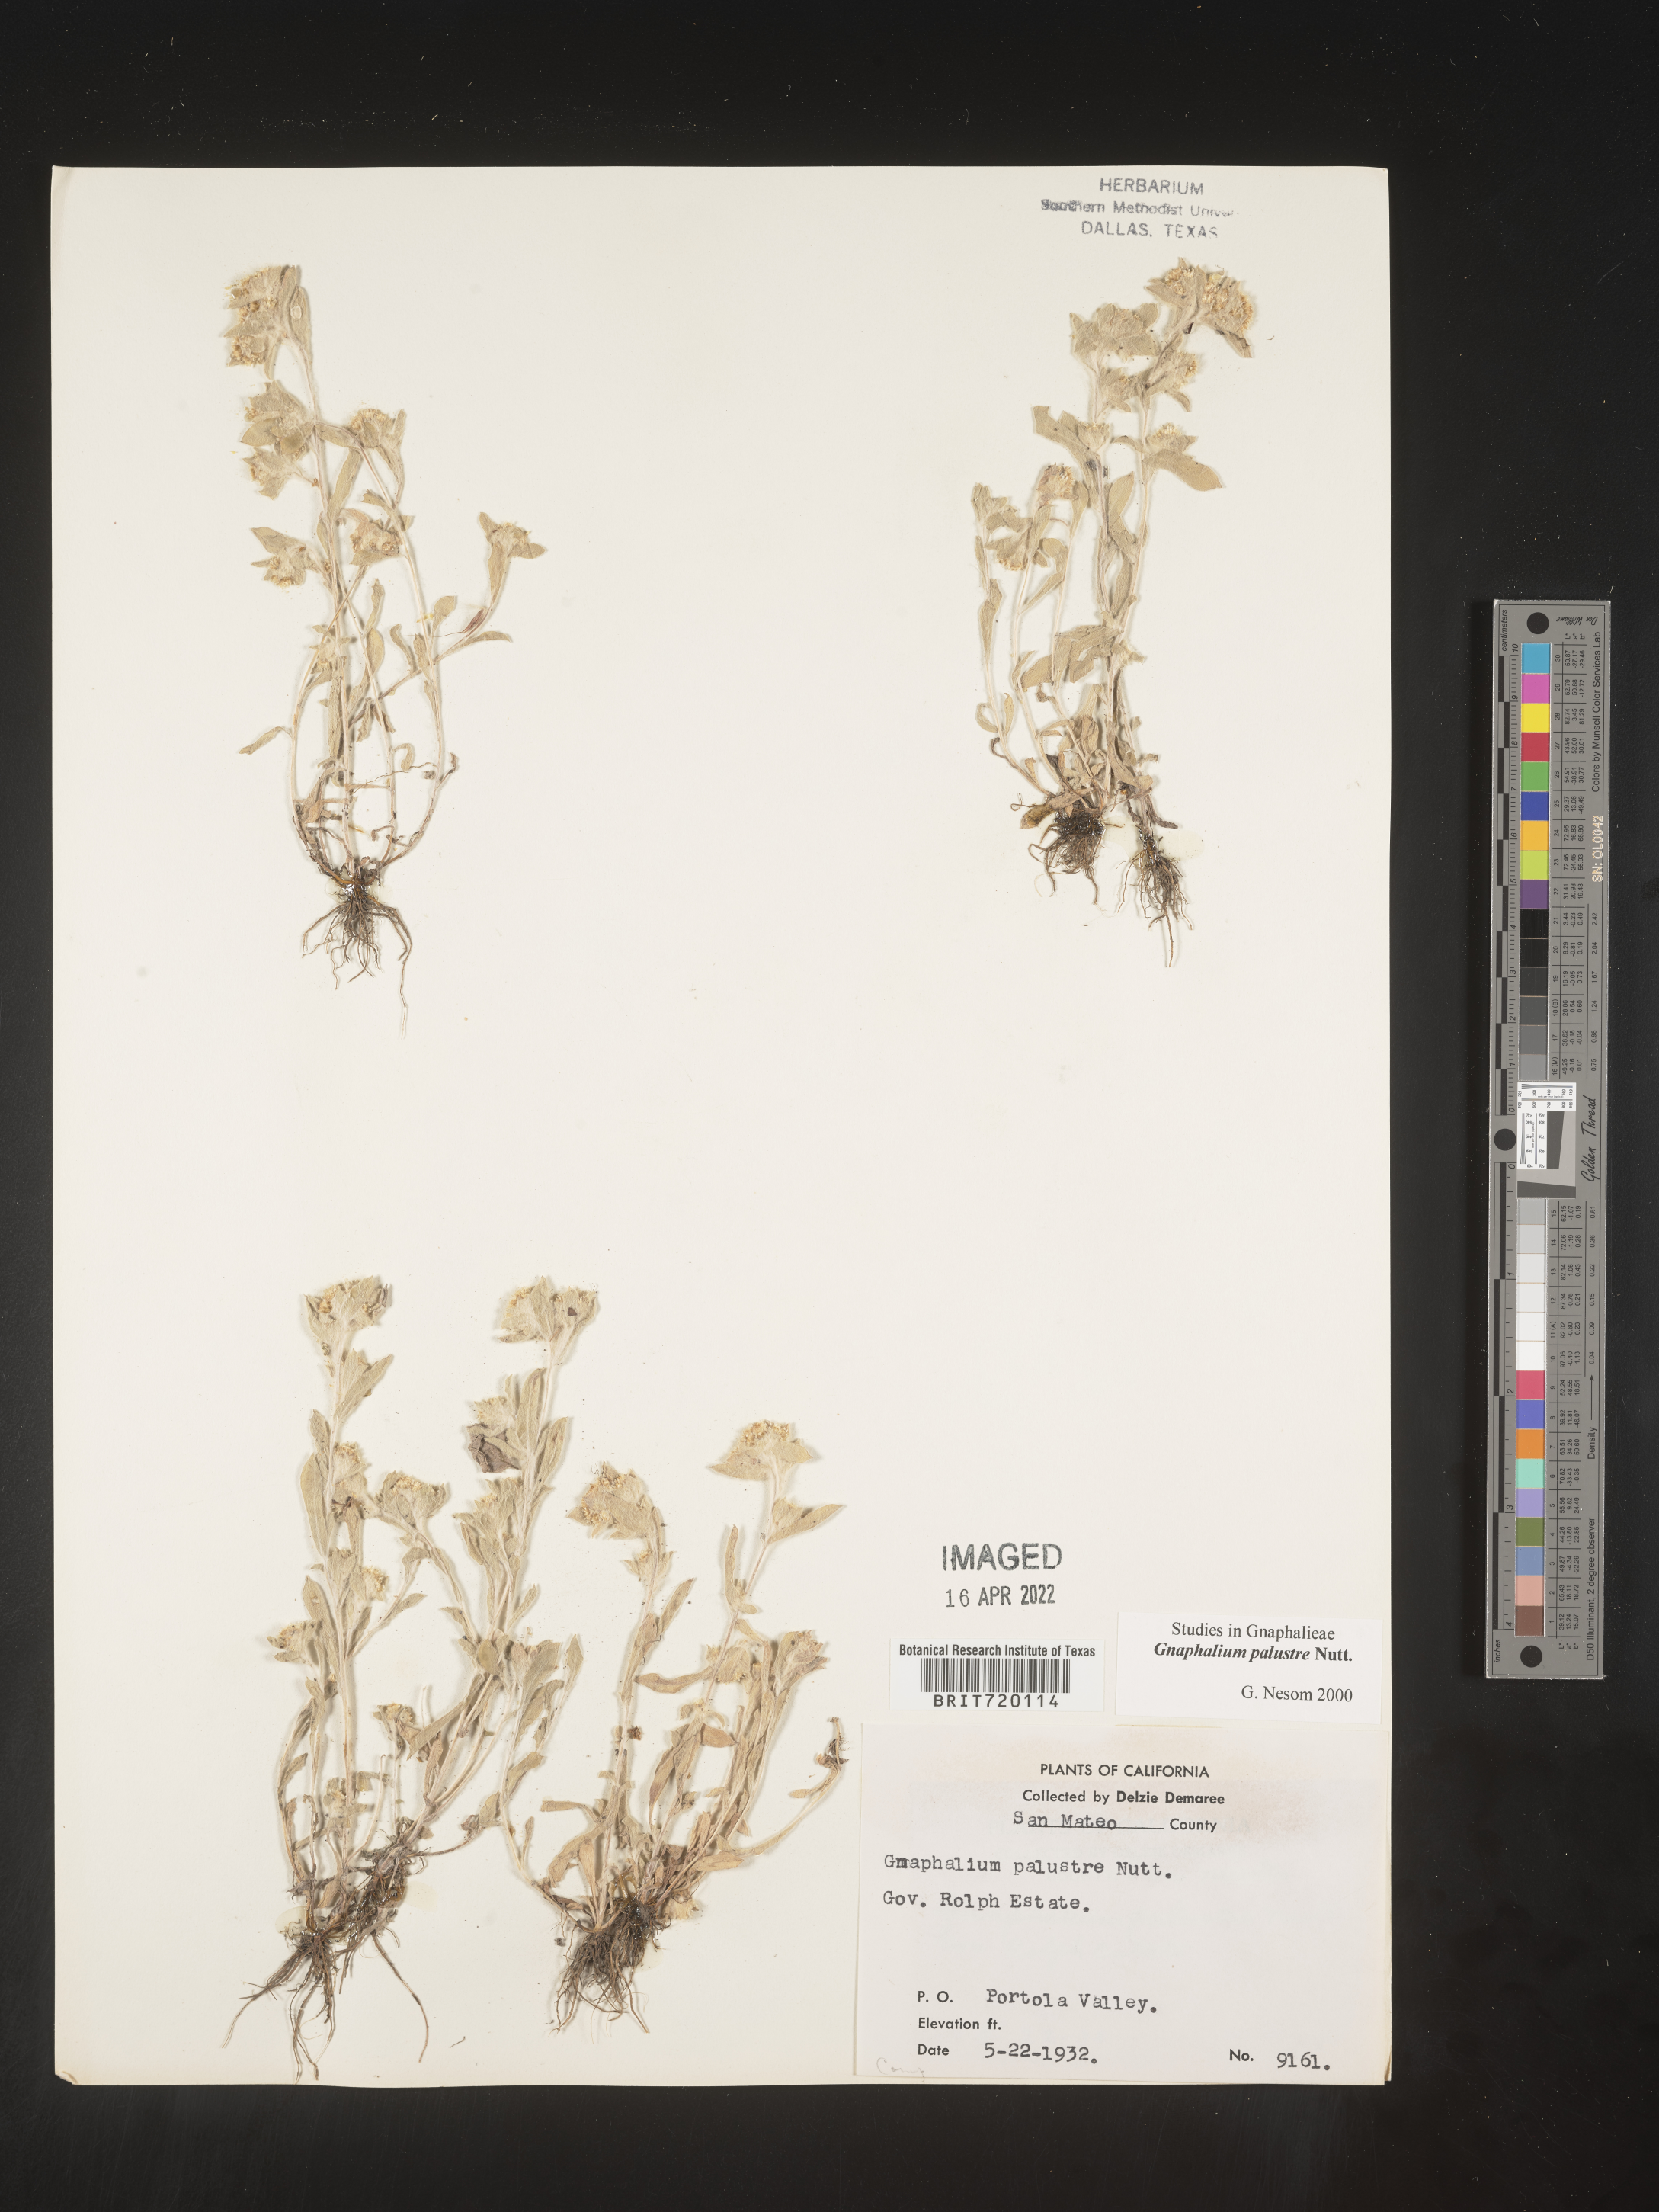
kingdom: Plantae
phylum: Tracheophyta
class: Magnoliopsida
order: Asterales
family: Asteraceae
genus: Gnaphalium
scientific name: Gnaphalium palustre
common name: Western marsh cudweed
